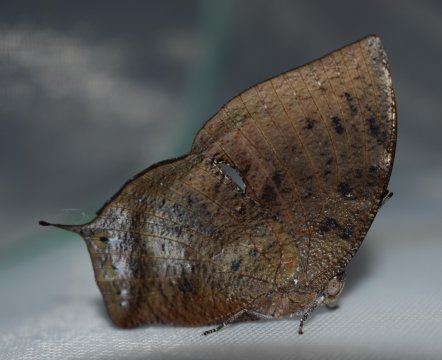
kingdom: Animalia
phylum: Arthropoda
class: Insecta
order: Lepidoptera
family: Nymphalidae
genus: Memphis
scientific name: Memphis aulica
